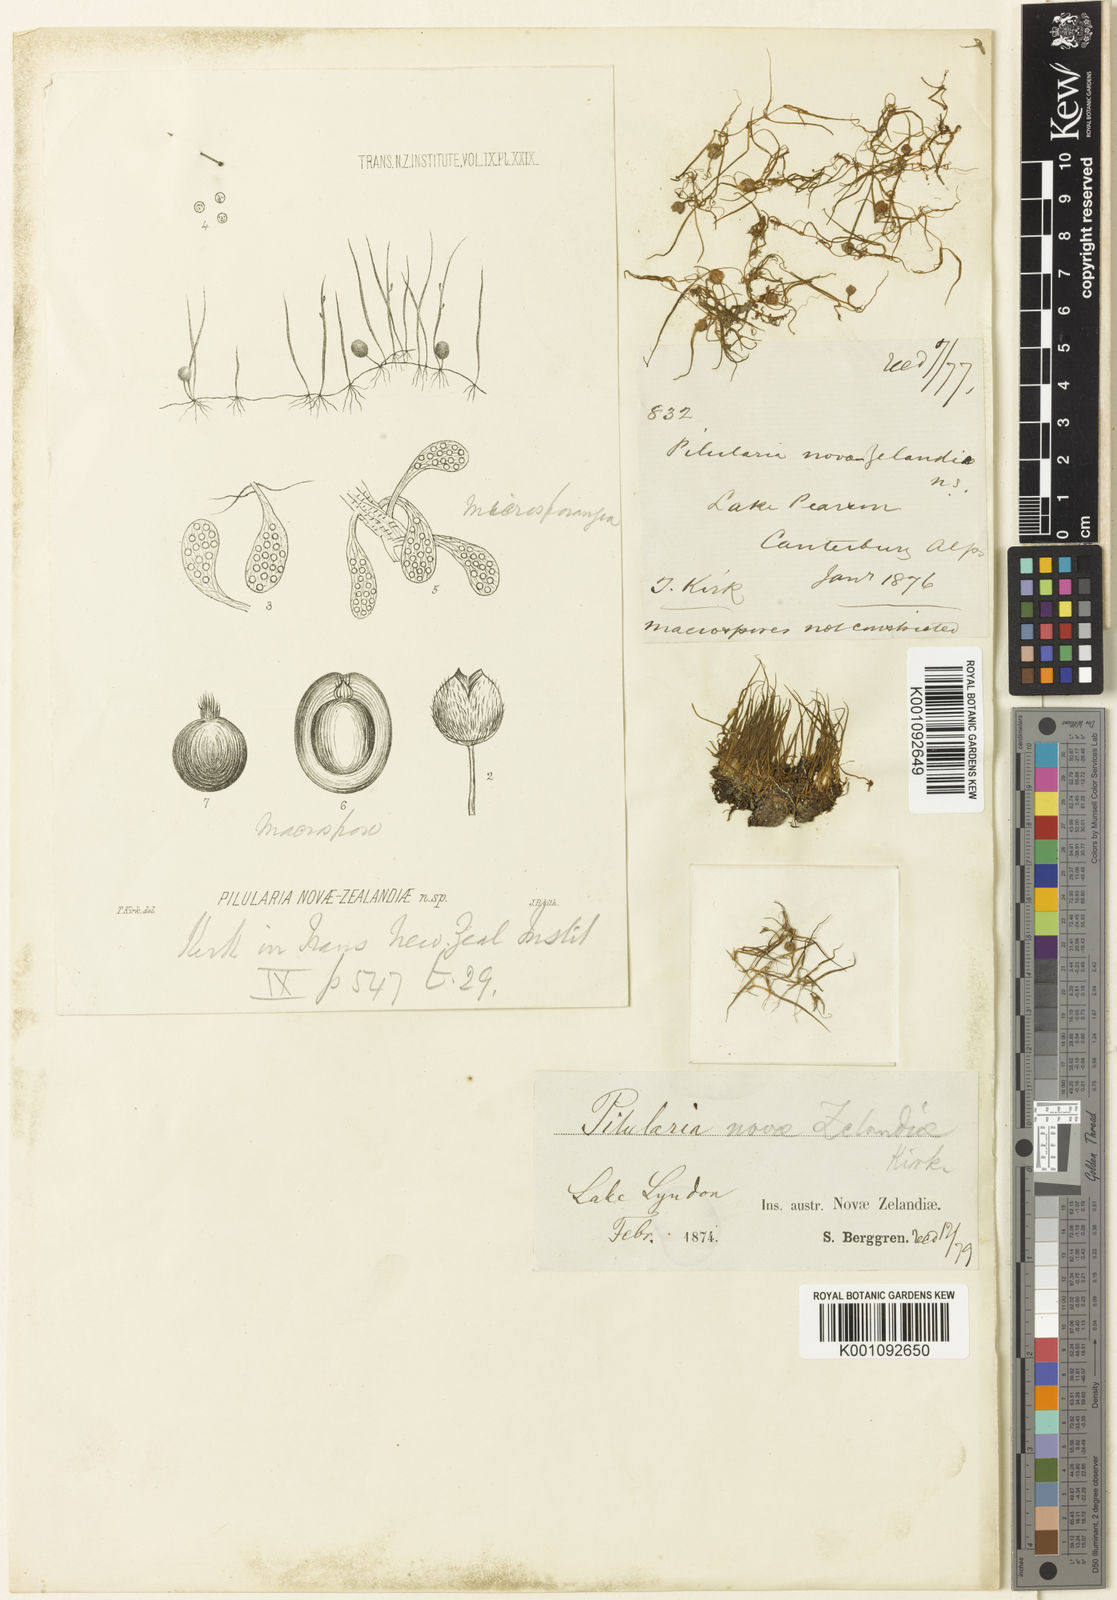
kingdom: Plantae
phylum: Tracheophyta
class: Polypodiopsida
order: Salviniales
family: Marsileaceae
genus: Pilularia
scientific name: Pilularia novae-hollandiae
